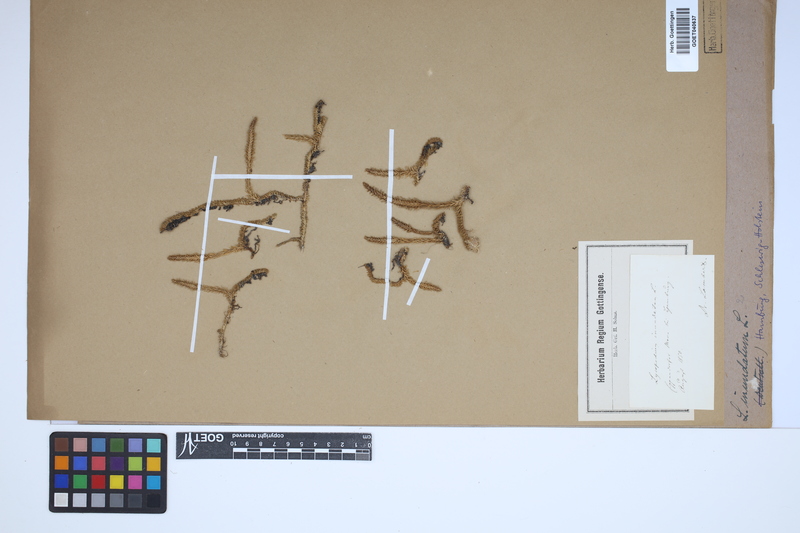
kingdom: Plantae
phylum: Tracheophyta
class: Lycopodiopsida
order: Lycopodiales
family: Lycopodiaceae
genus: Lycopodiella
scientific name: Lycopodiella inundata
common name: Marsh clubmoss
